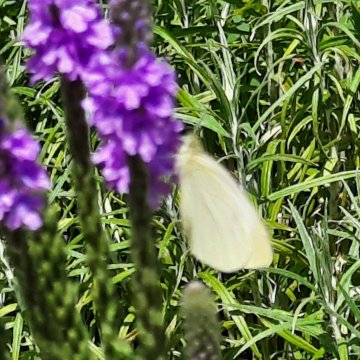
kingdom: Animalia
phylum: Arthropoda
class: Insecta
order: Lepidoptera
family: Pieridae
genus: Pieris
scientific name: Pieris rapae
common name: Cabbage White
